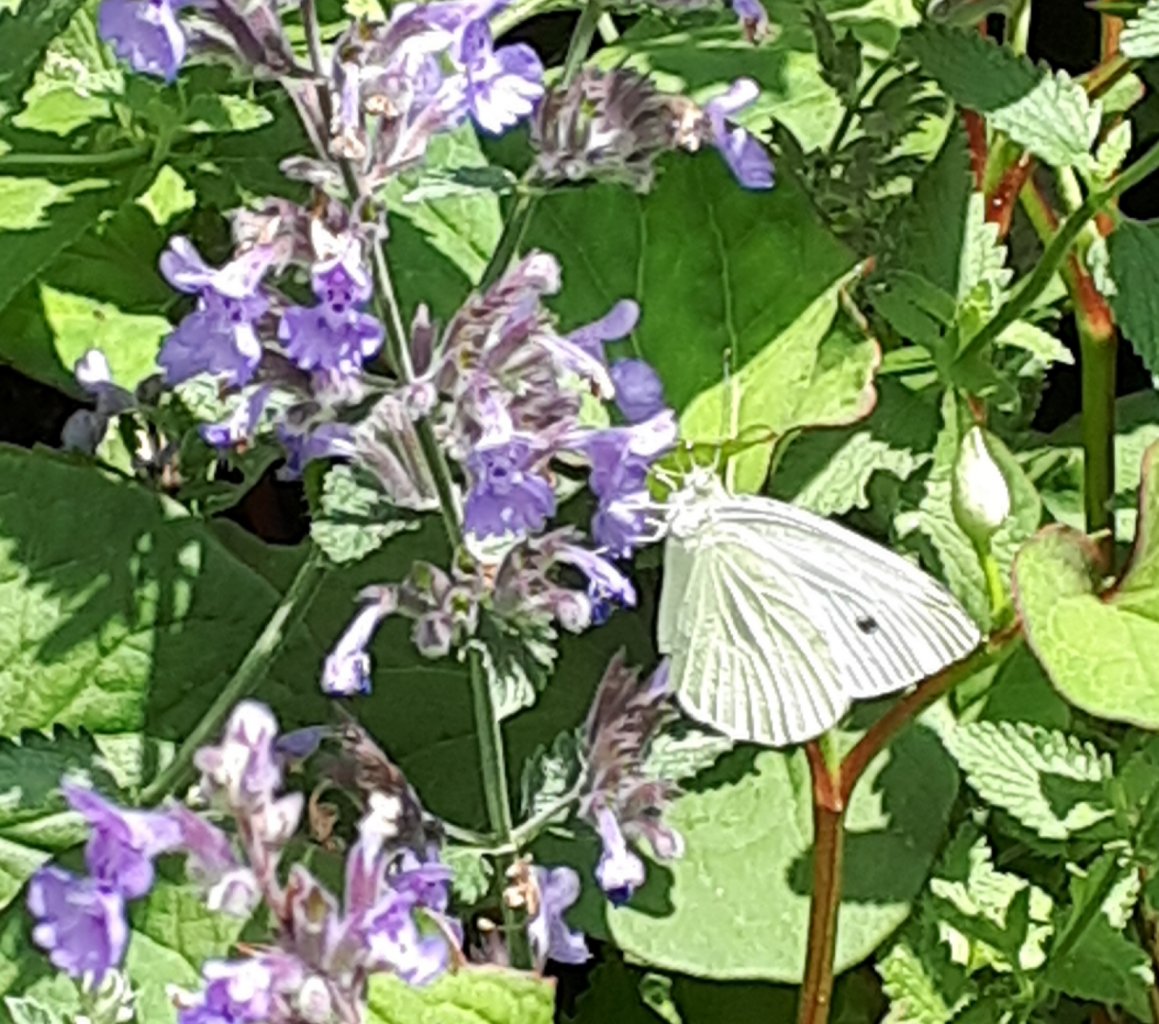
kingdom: Animalia
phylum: Arthropoda
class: Insecta
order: Lepidoptera
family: Pieridae
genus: Pieris
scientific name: Pieris rapae
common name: Cabbage White
